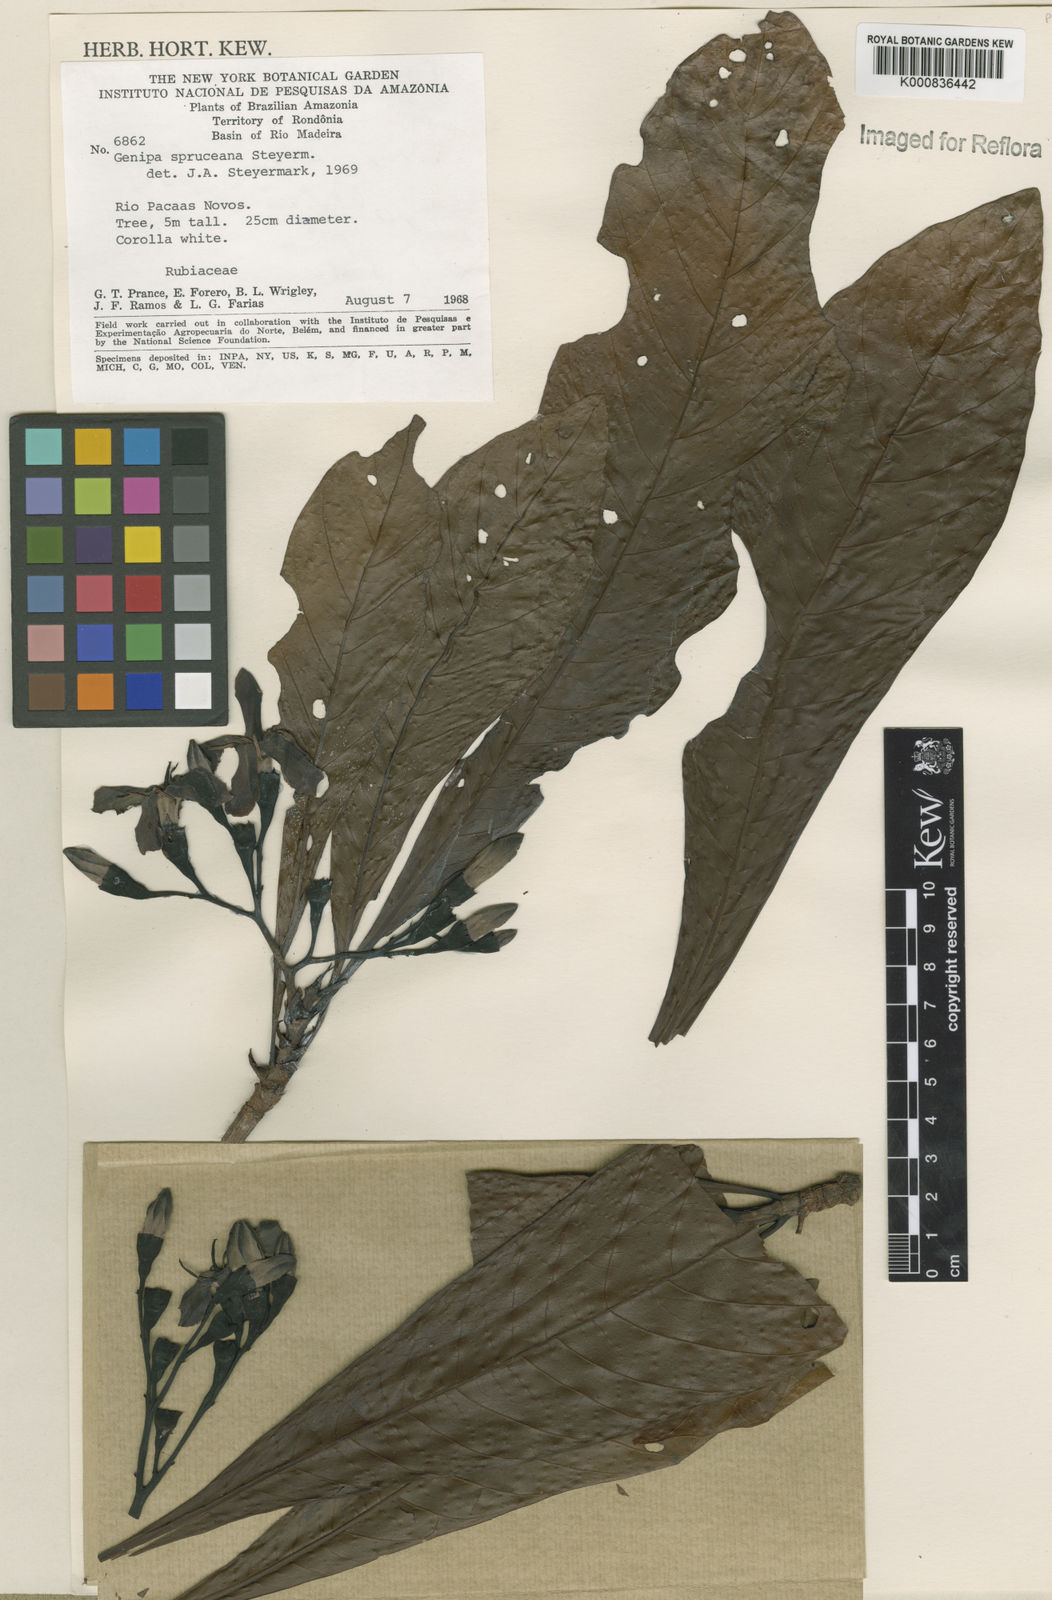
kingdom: Plantae
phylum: Tracheophyta
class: Magnoliopsida
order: Gentianales
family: Rubiaceae
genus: Genipa
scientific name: Genipa americana
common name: Genipap
